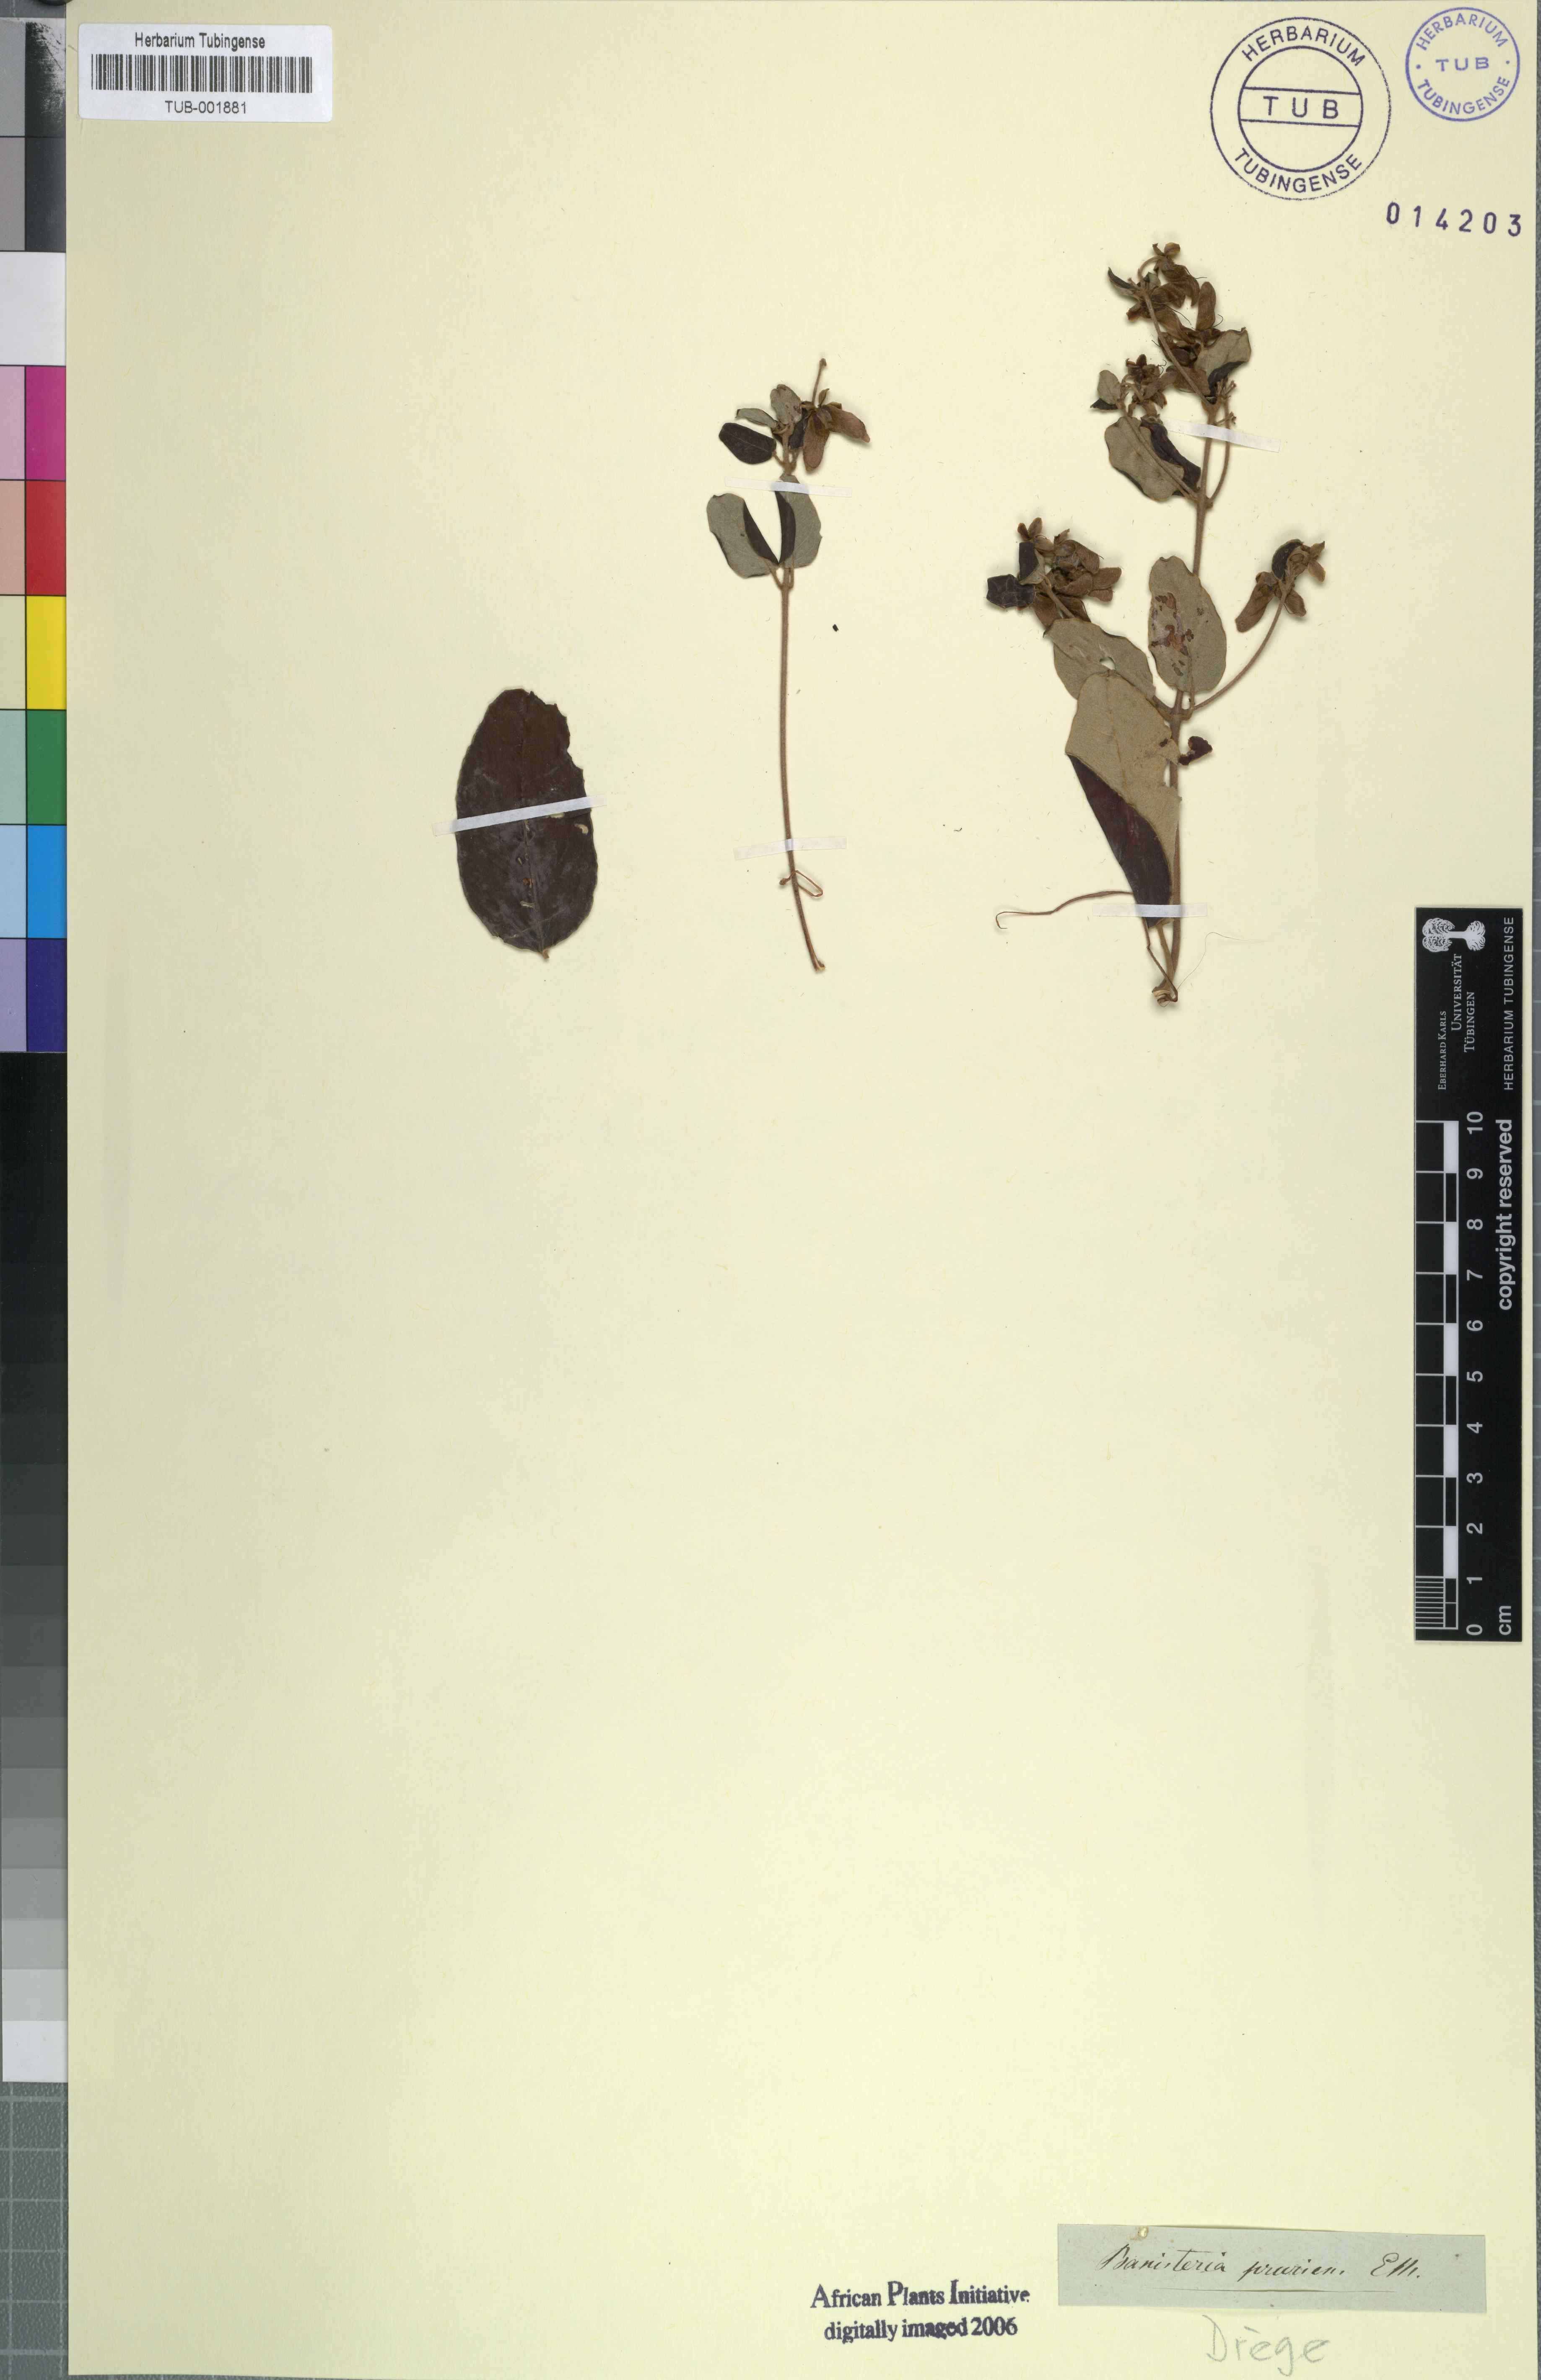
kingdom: Plantae
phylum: Tracheophyta
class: Magnoliopsida
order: Malpighiales
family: Malpighiaceae
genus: Sphedamnocarpus
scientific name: Sphedamnocarpus pruriens
